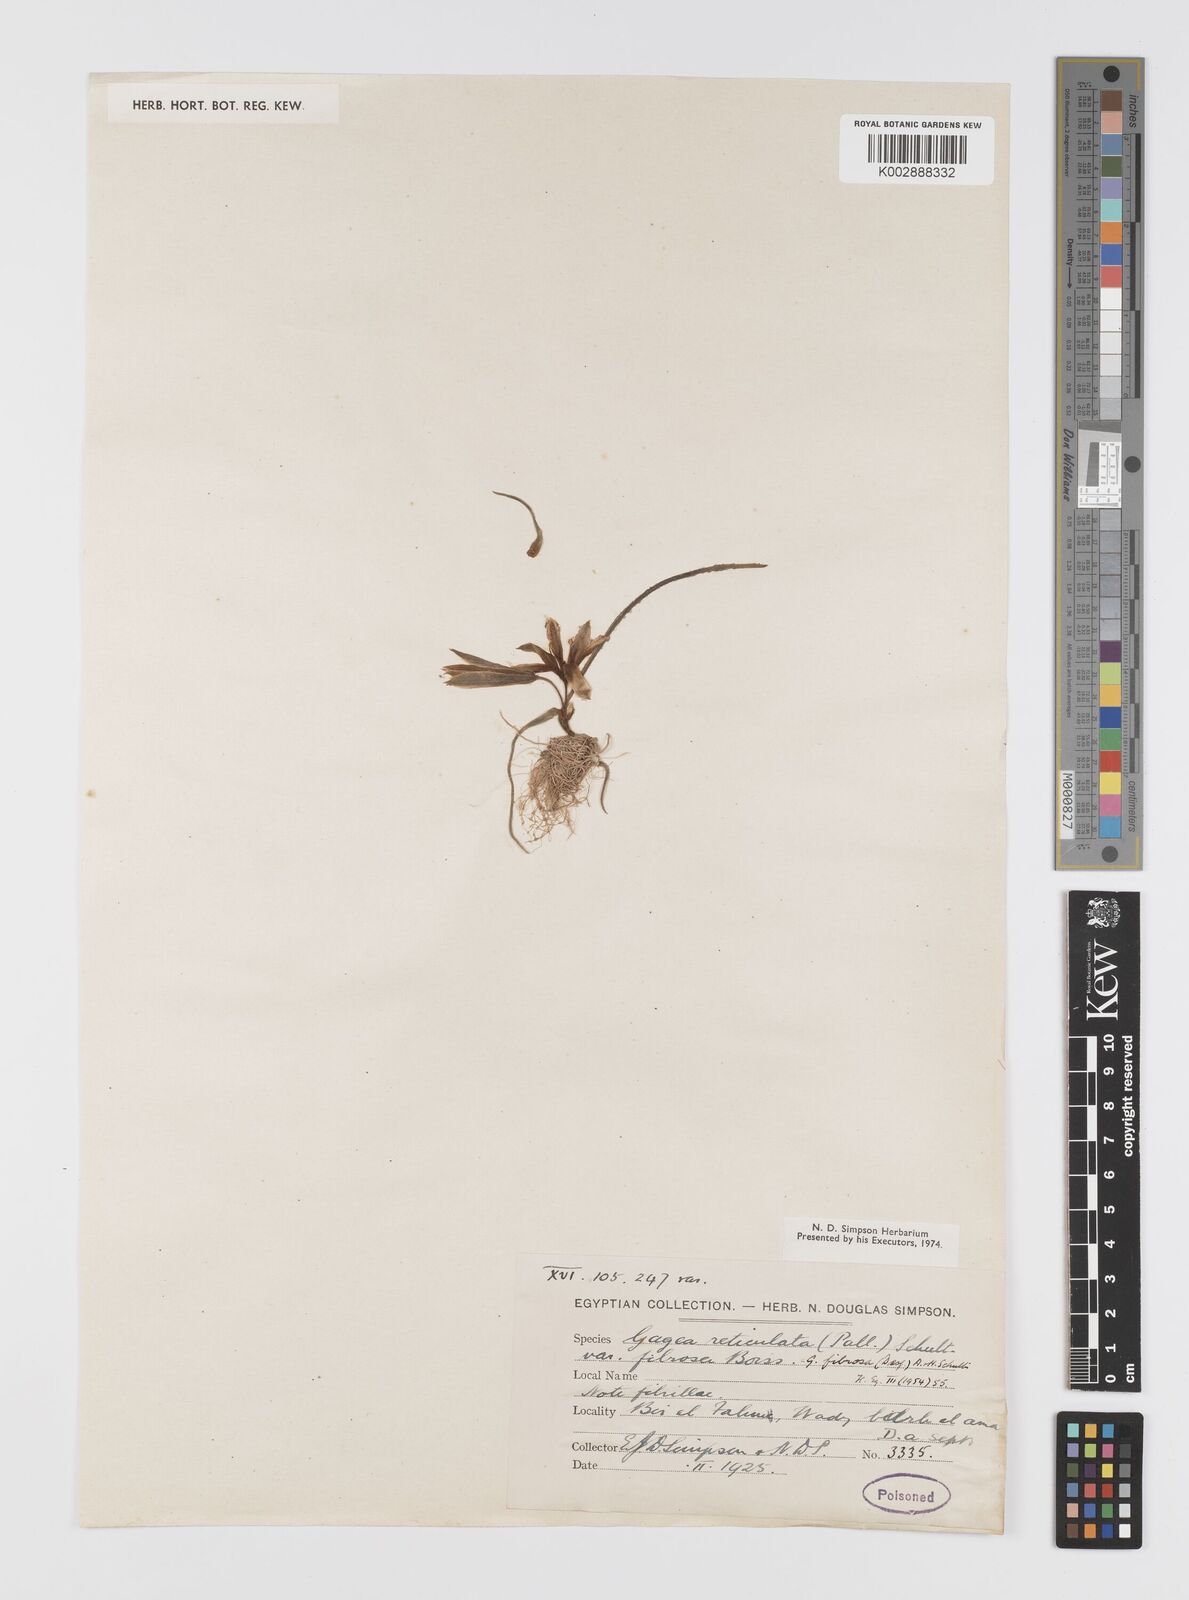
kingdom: Plantae
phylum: Tracheophyta
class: Liliopsida
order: Liliales
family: Liliaceae
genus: Gagea
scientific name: Gagea fibrosa
